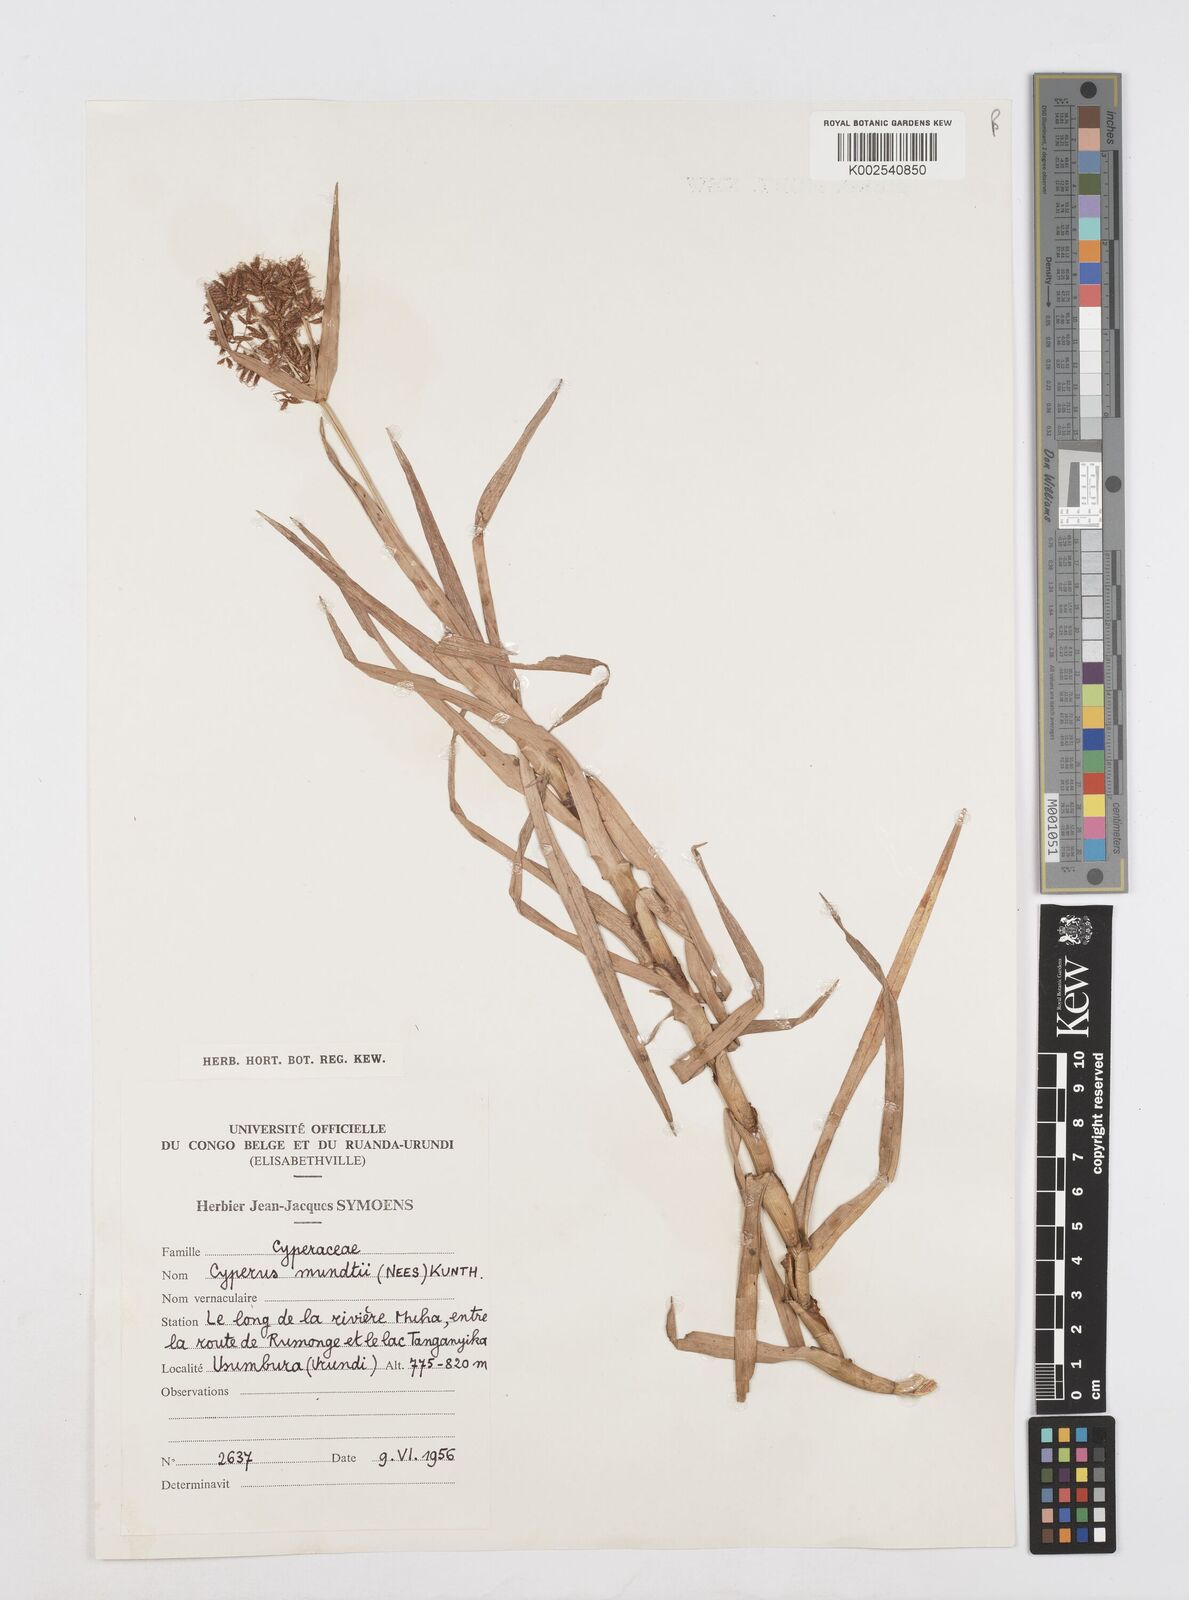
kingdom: Plantae
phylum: Tracheophyta
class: Liliopsida
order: Poales
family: Cyperaceae
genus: Cyperus
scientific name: Cyperus mundii
